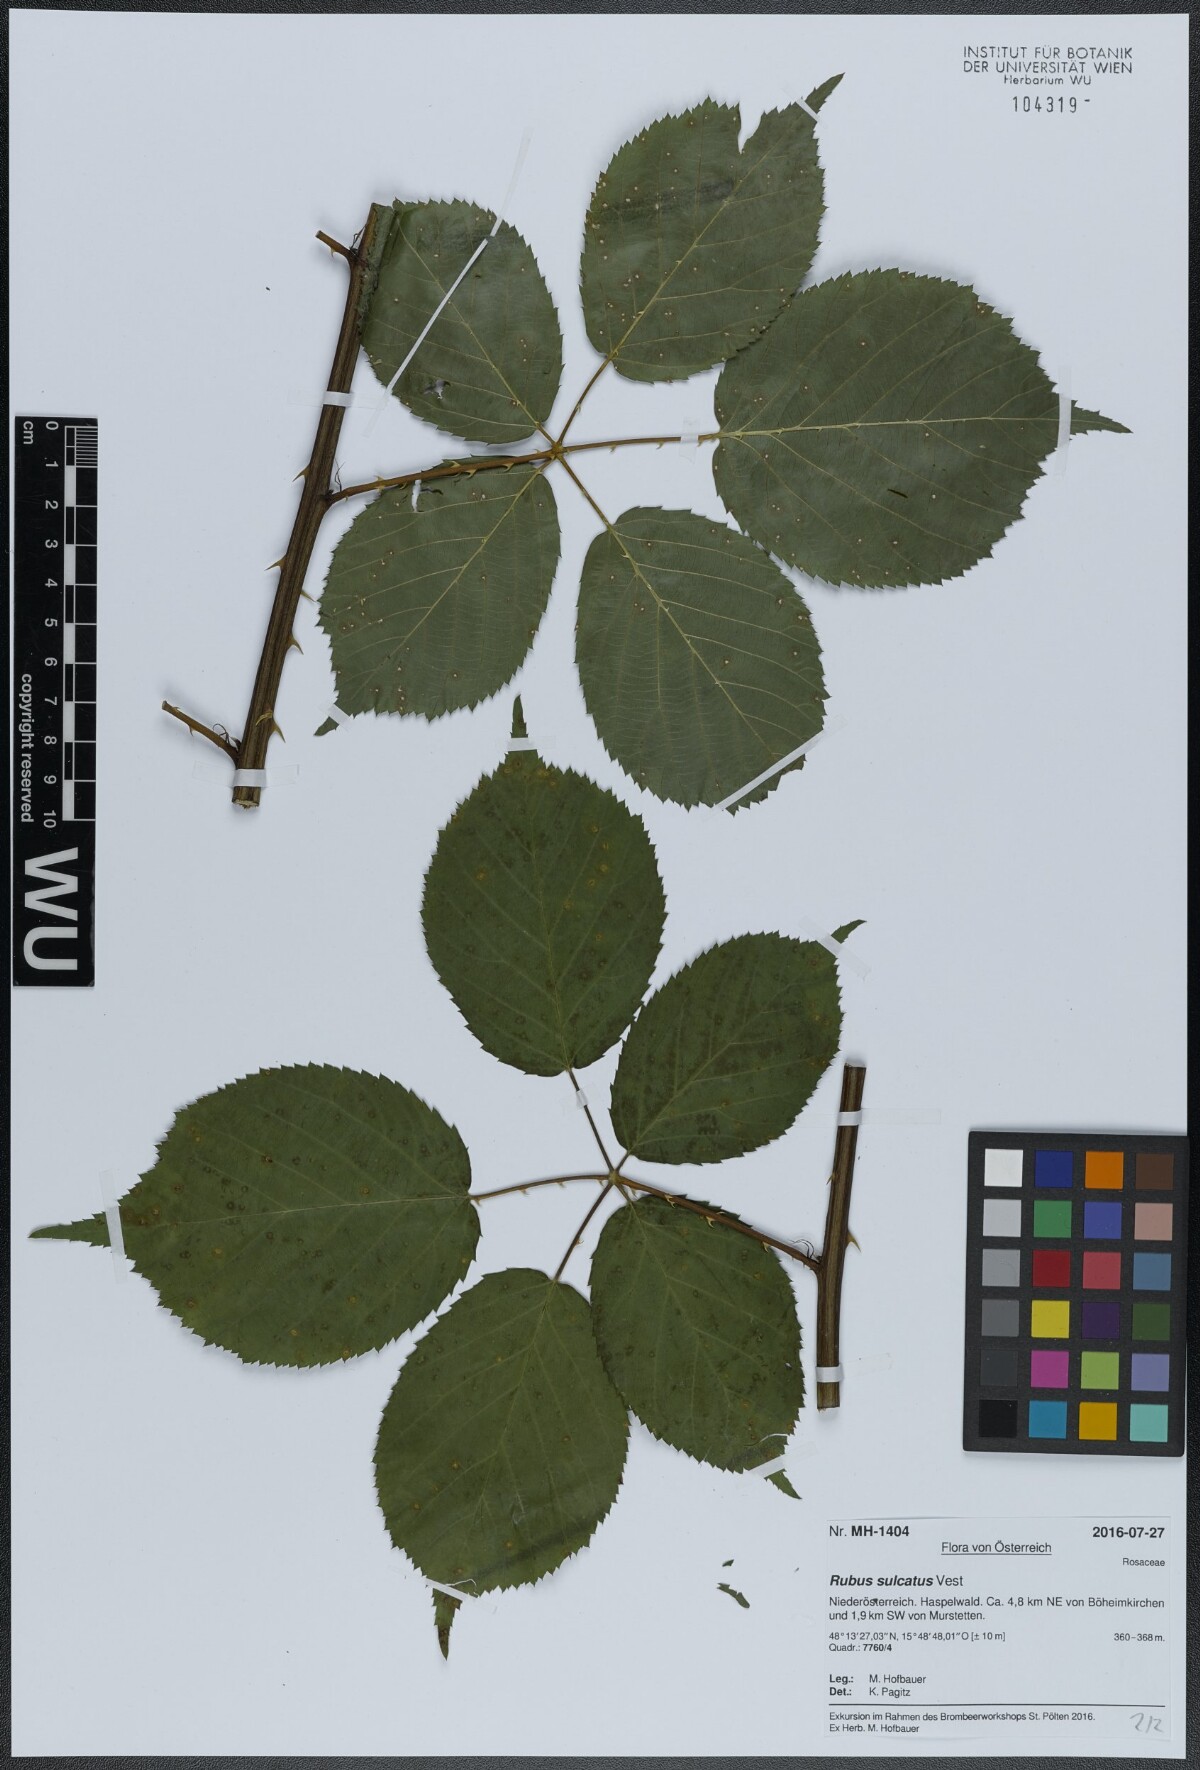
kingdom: Plantae
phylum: Tracheophyta
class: Magnoliopsida
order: Rosales
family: Rosaceae
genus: Rubus
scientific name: Rubus sulcatus
